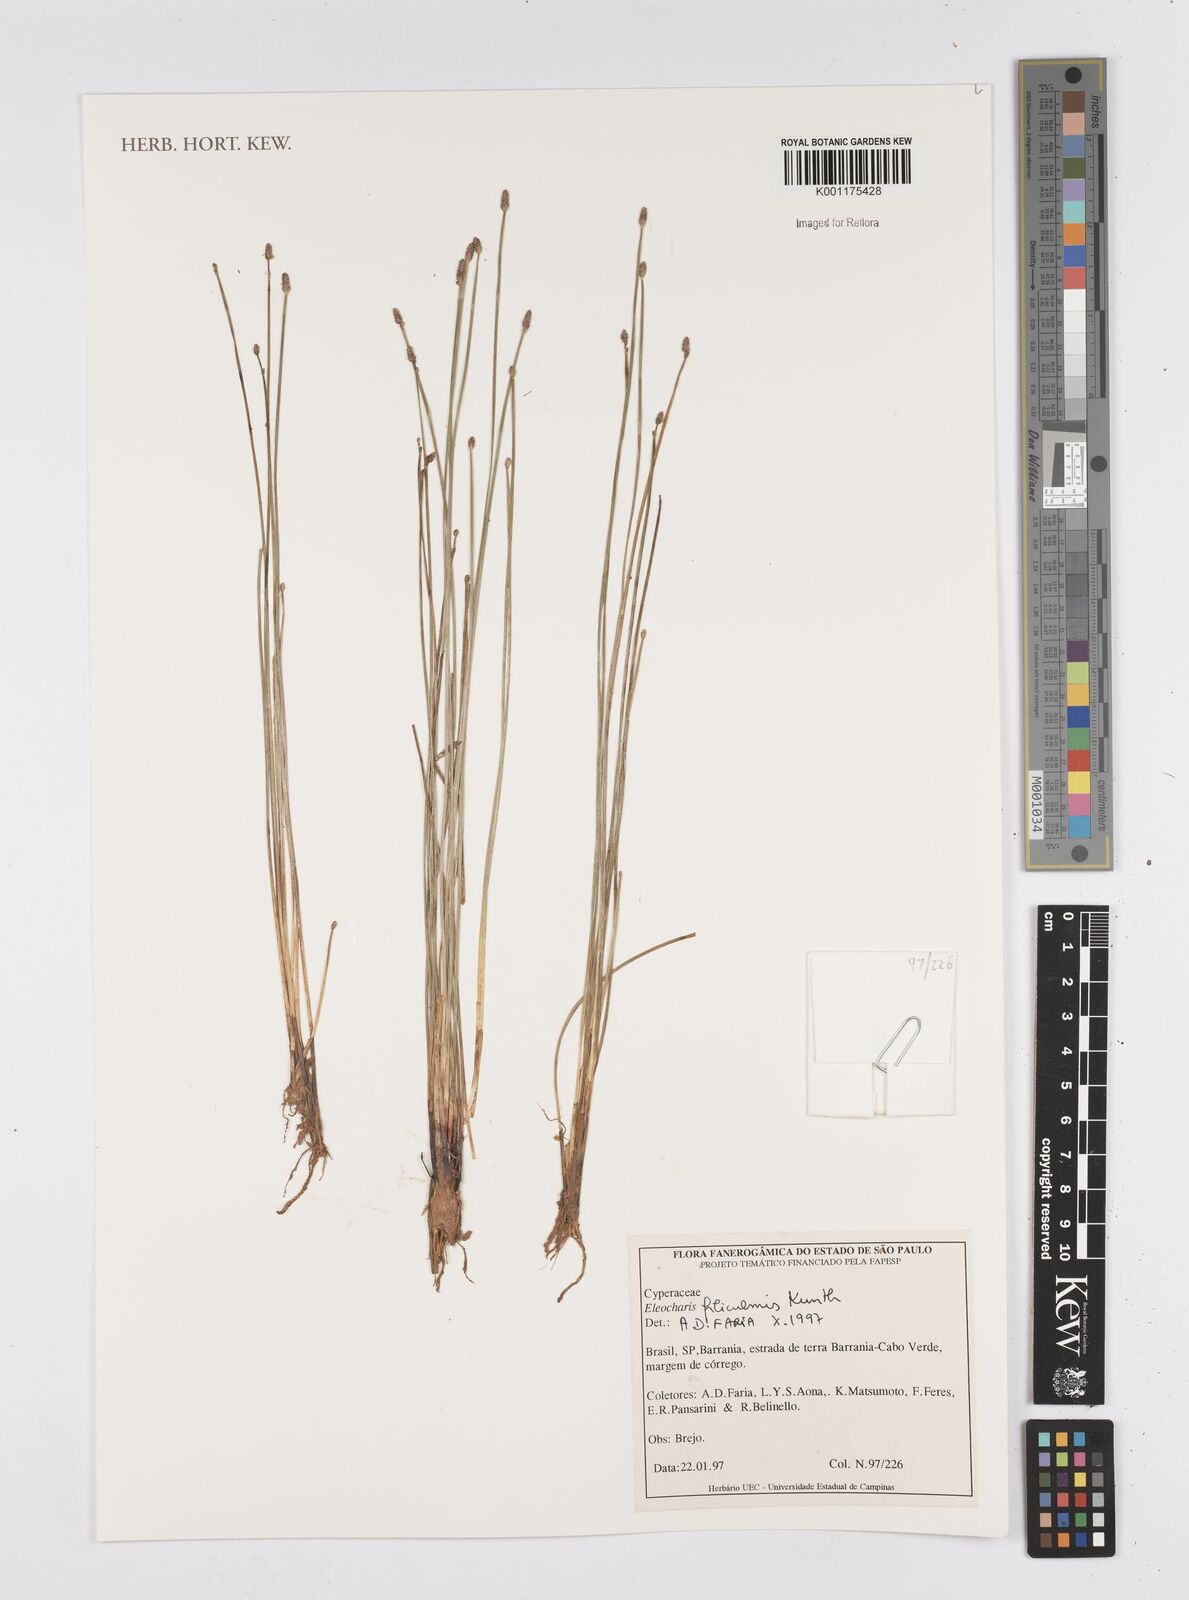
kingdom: Plantae
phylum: Tracheophyta
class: Liliopsida
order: Poales
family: Cyperaceae
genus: Eleocharis
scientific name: Eleocharis filiculmis
